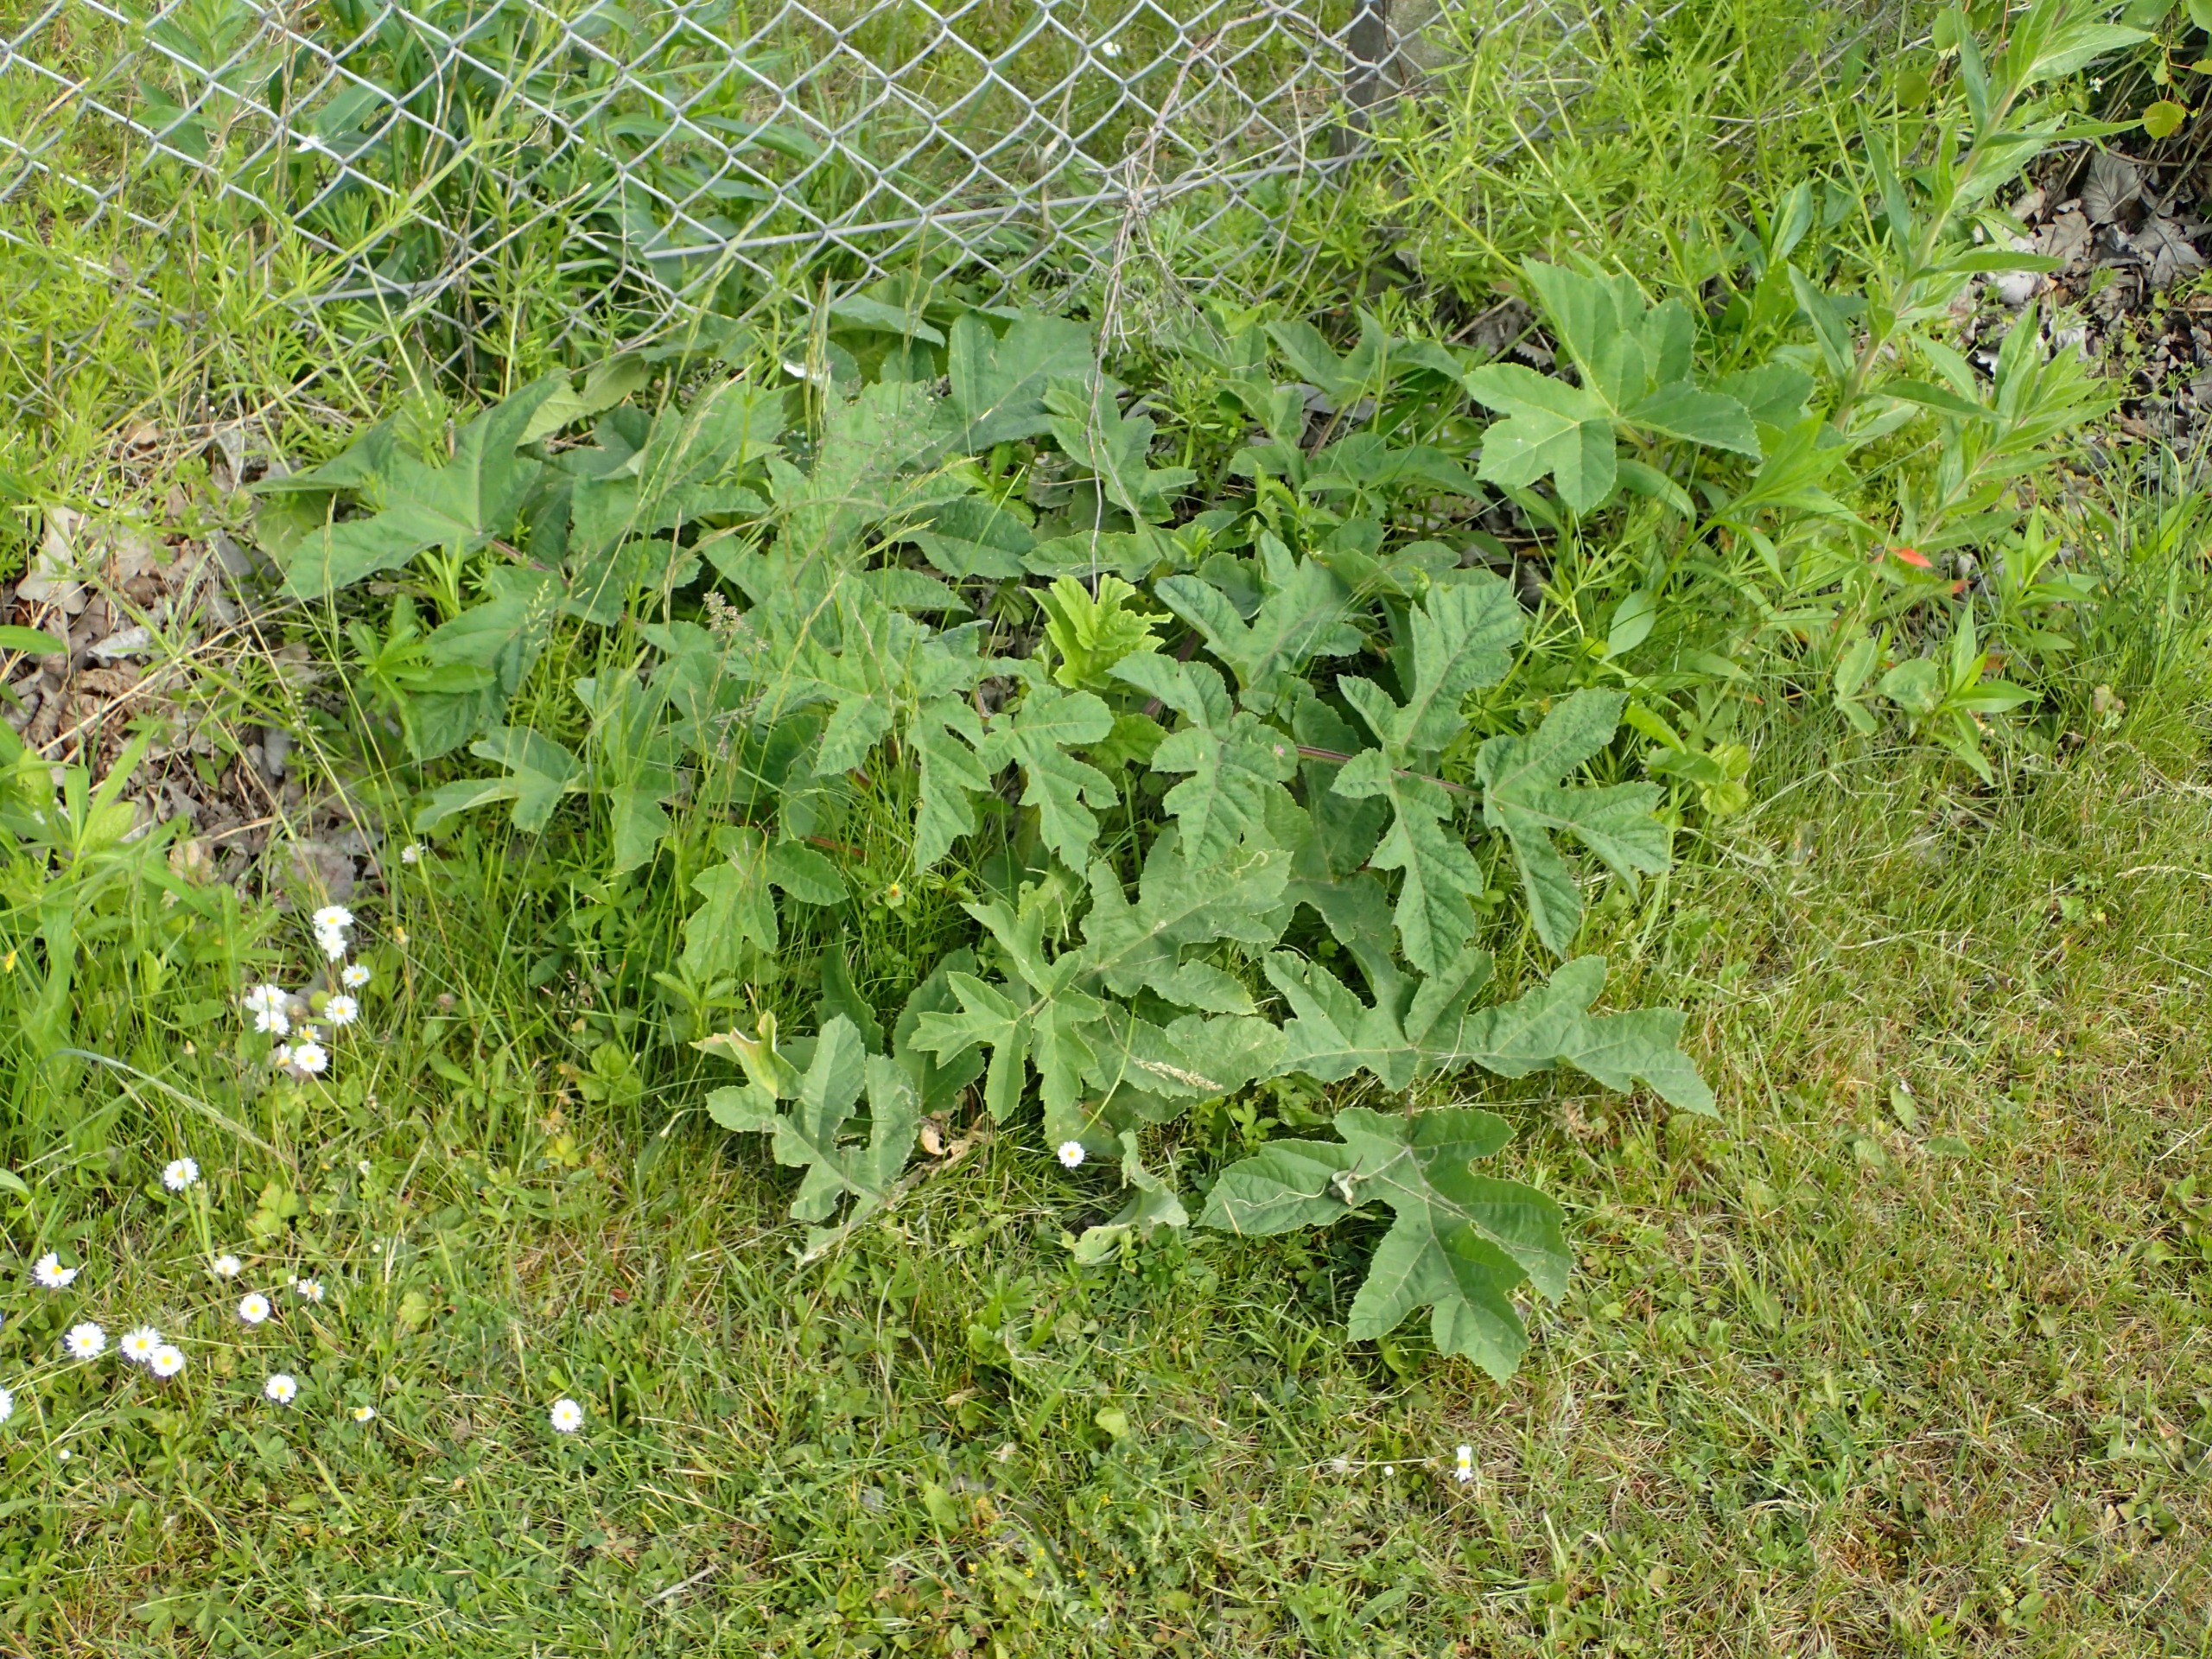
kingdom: Plantae
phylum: Tracheophyta
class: Magnoliopsida
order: Apiales
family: Apiaceae
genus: Heracleum
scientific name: Heracleum sphondylium
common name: Almindelig bjørneklo
